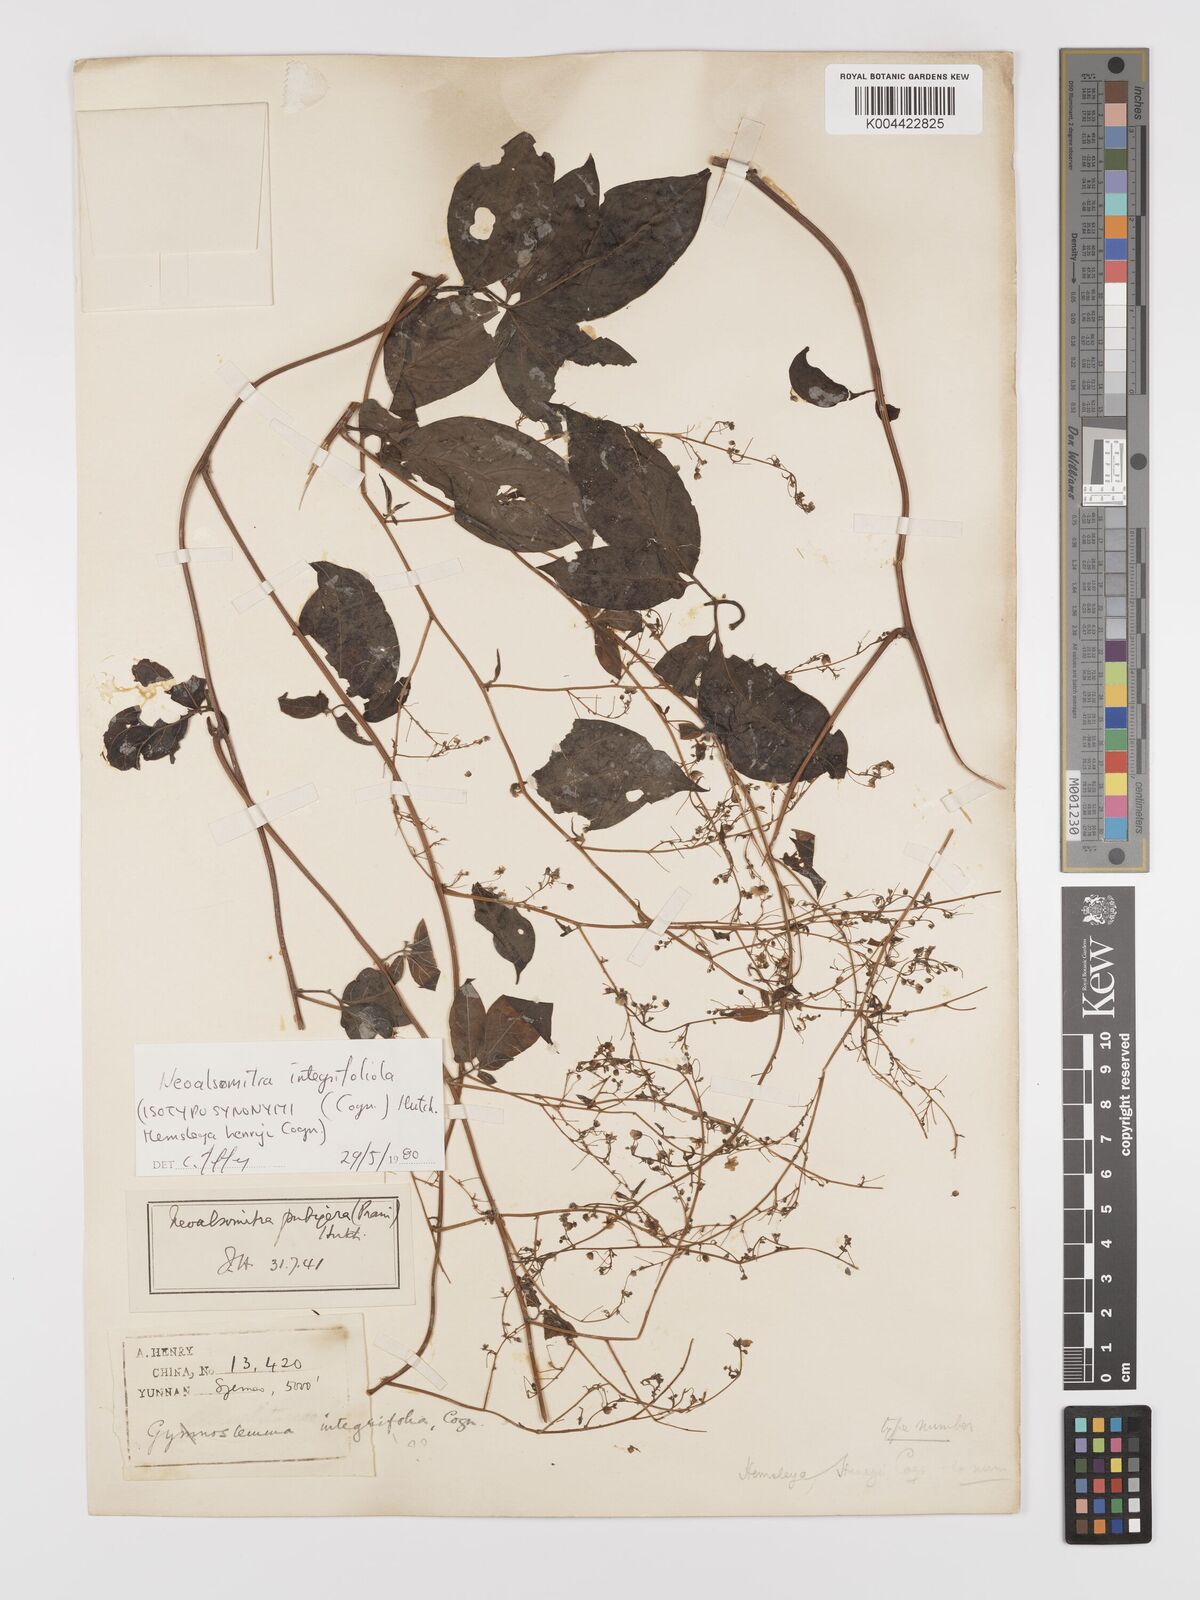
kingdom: Plantae
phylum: Tracheophyta
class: Magnoliopsida
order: Cucurbitales
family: Cucurbitaceae
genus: Neoalsomitra
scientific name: Neoalsomitra clavigera
